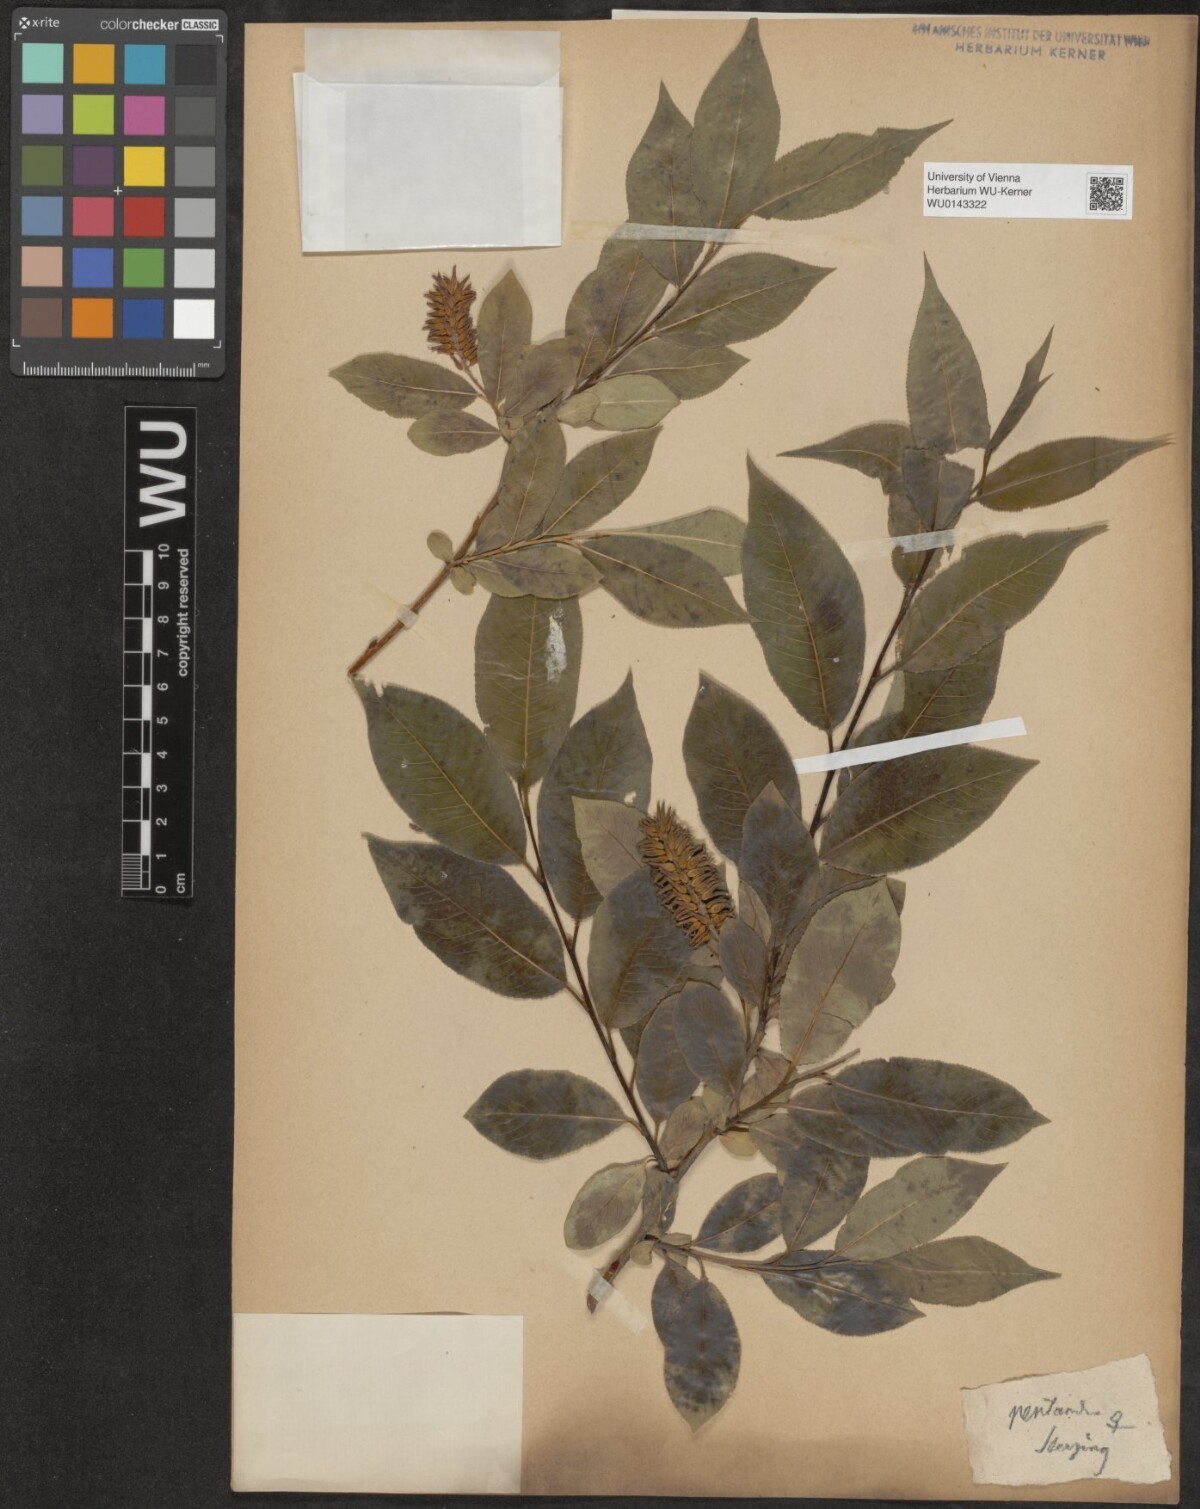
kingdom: Plantae
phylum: Tracheophyta
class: Magnoliopsida
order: Malpighiales
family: Salicaceae
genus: Salix
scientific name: Salix pentandra
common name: Bay willow
